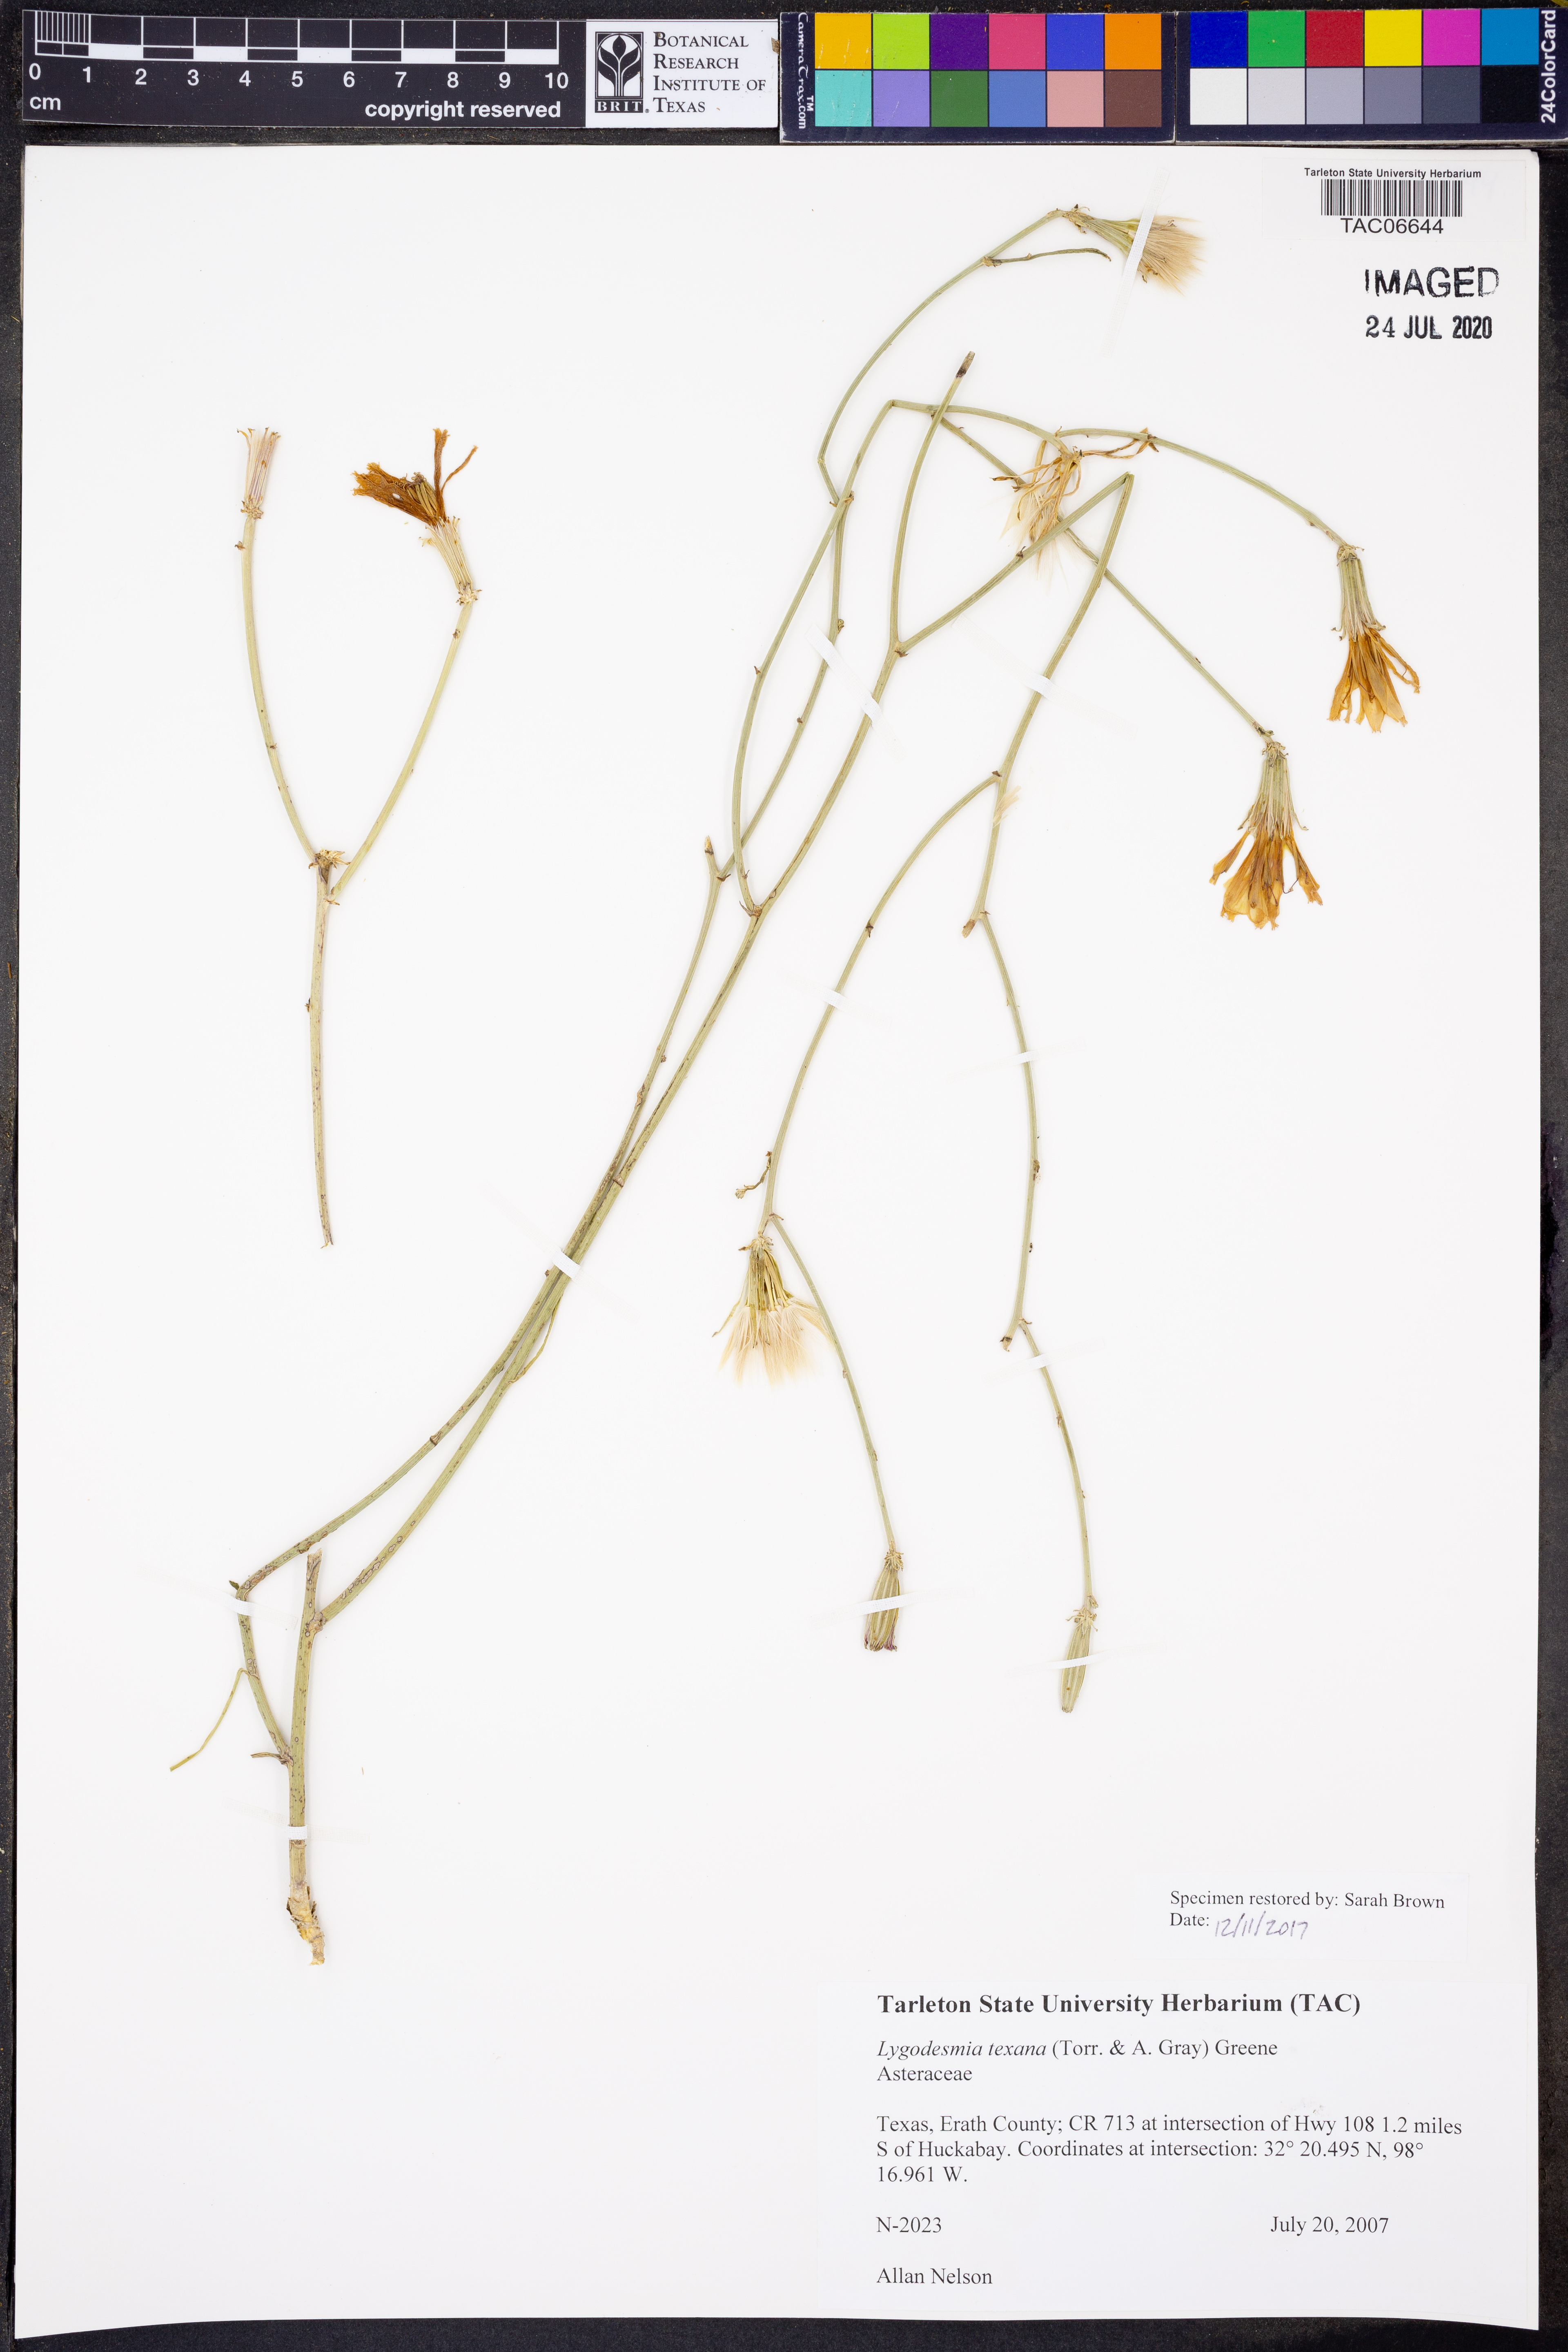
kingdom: Plantae
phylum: Tracheophyta
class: Magnoliopsida
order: Asterales
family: Asteraceae
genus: Lygodesmia
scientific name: Lygodesmia texana
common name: Texas skeleton-plant
